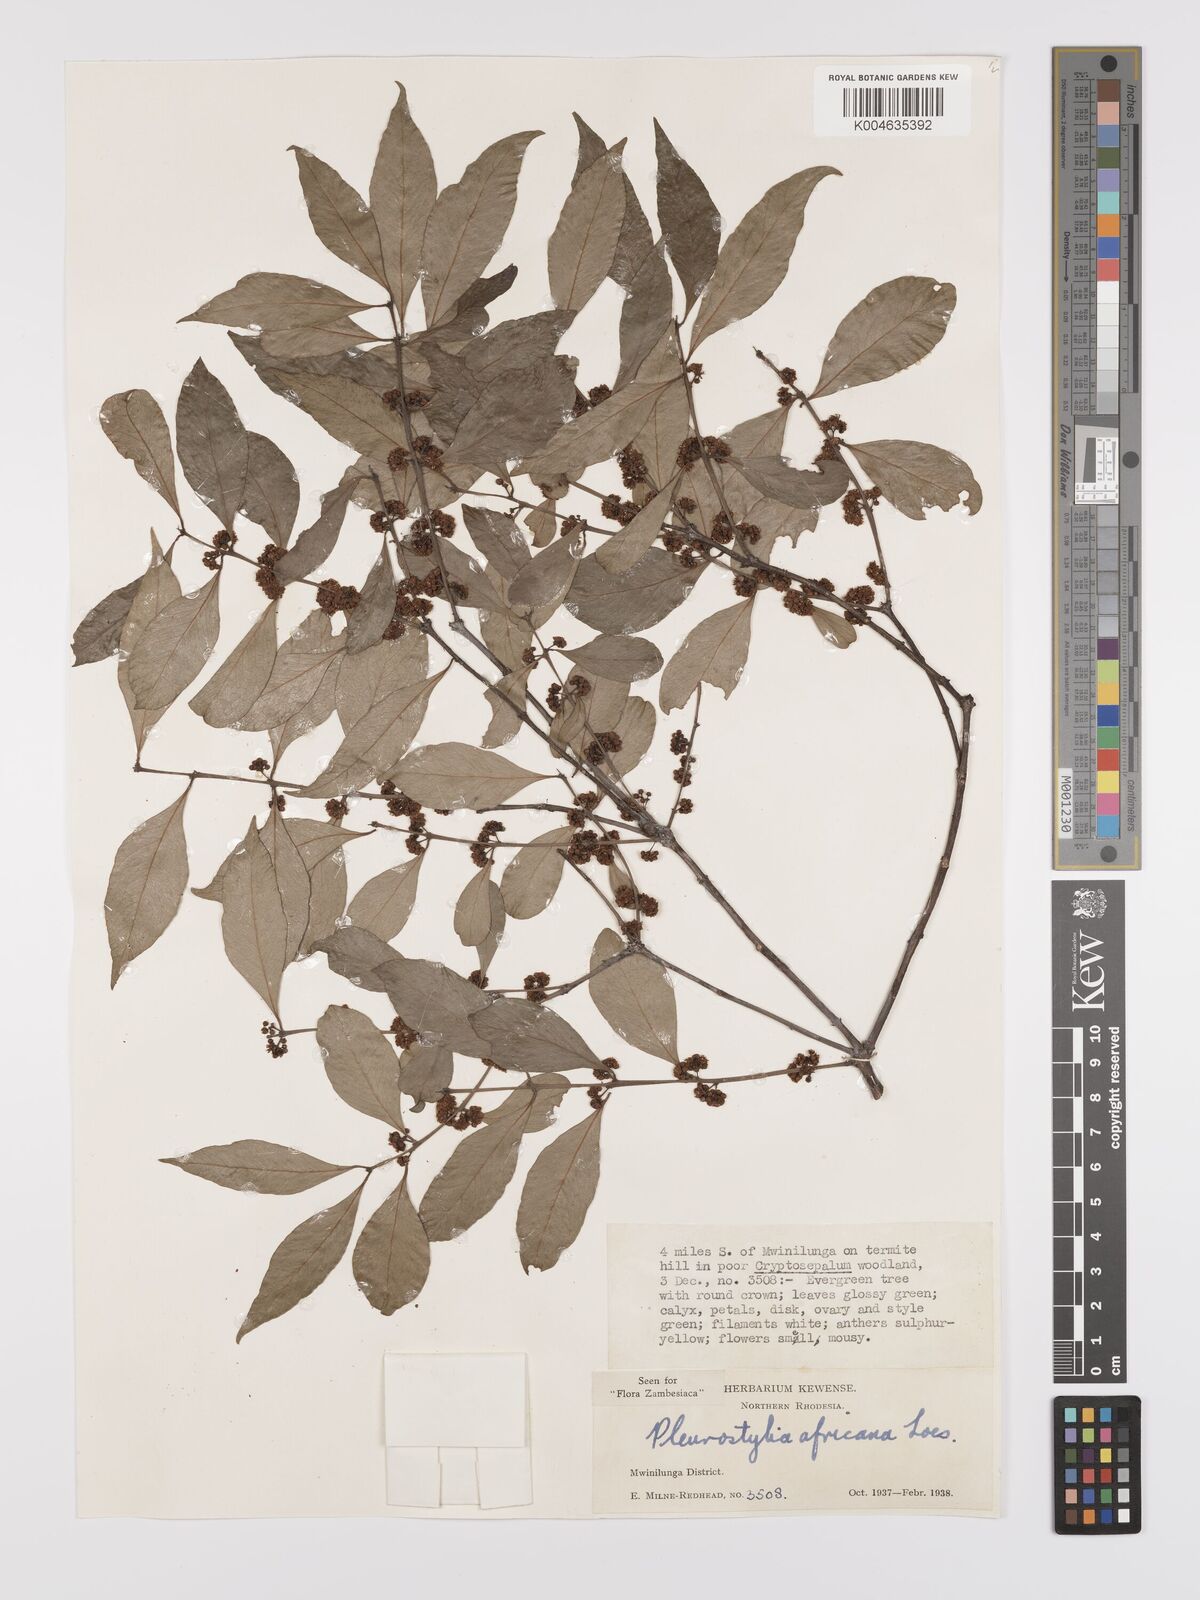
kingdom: Plantae
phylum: Tracheophyta
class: Magnoliopsida
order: Celastrales
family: Celastraceae
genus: Pleurostylia
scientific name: Pleurostylia africana
